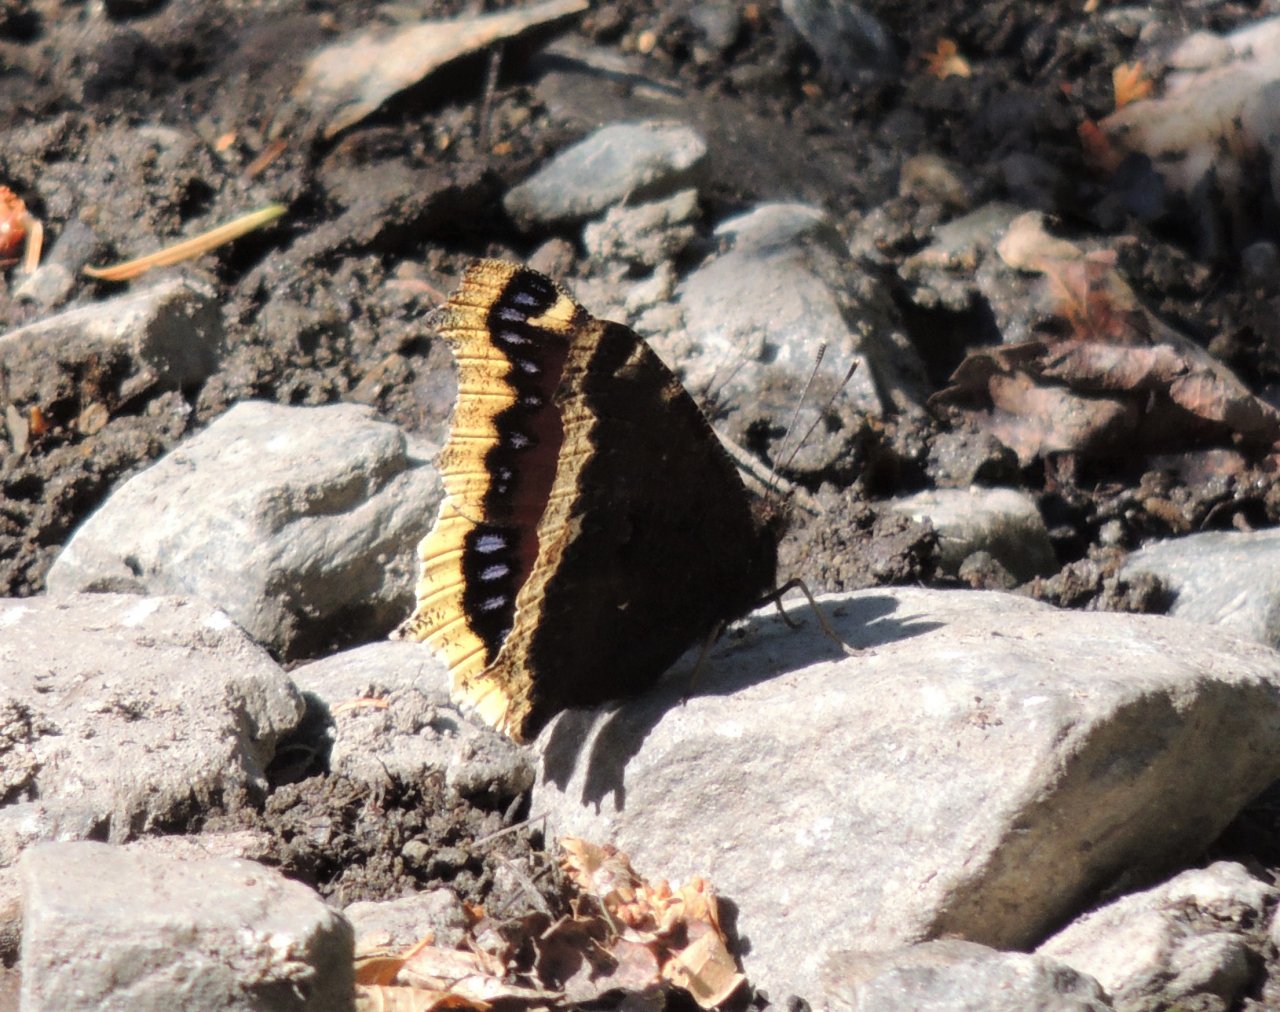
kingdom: Animalia
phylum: Arthropoda
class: Insecta
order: Lepidoptera
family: Nymphalidae
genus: Nymphalis
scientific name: Nymphalis antiopa
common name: Mourning Cloak
